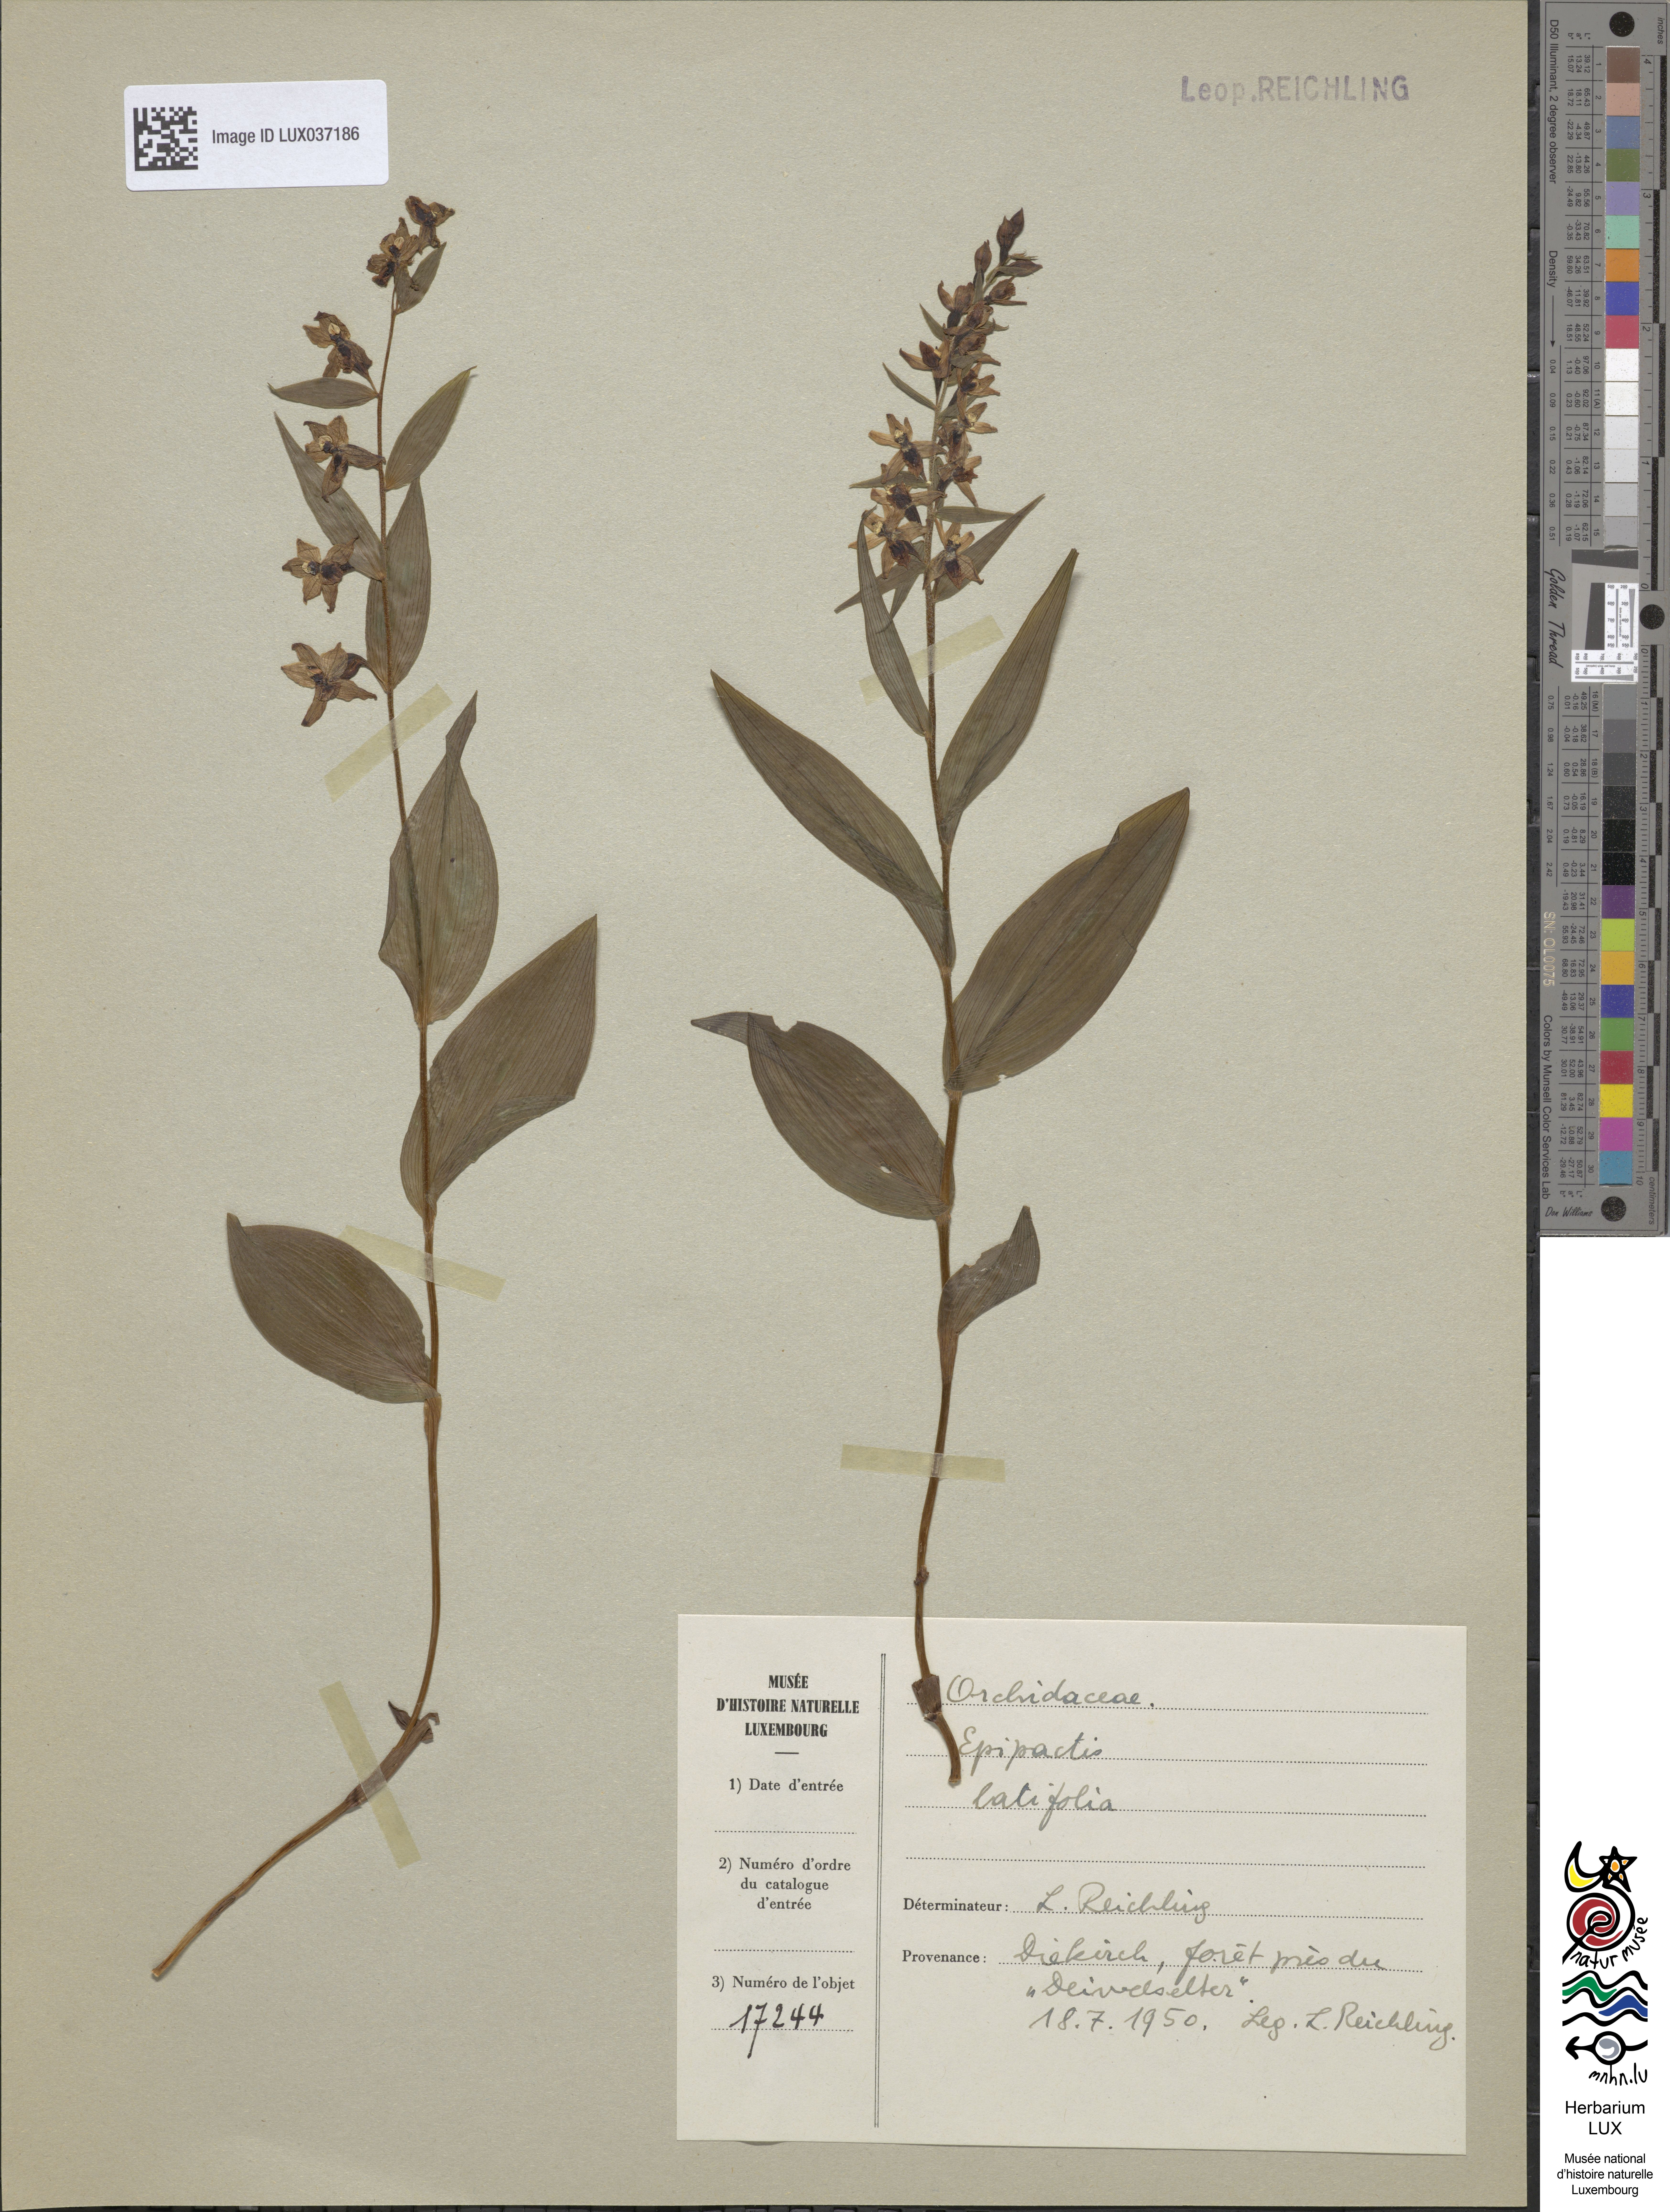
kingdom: Plantae
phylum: Tracheophyta
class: Liliopsida
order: Asparagales
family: Orchidaceae
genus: Epipactis
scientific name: Epipactis helleborine
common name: Broad-leaved helleborine
